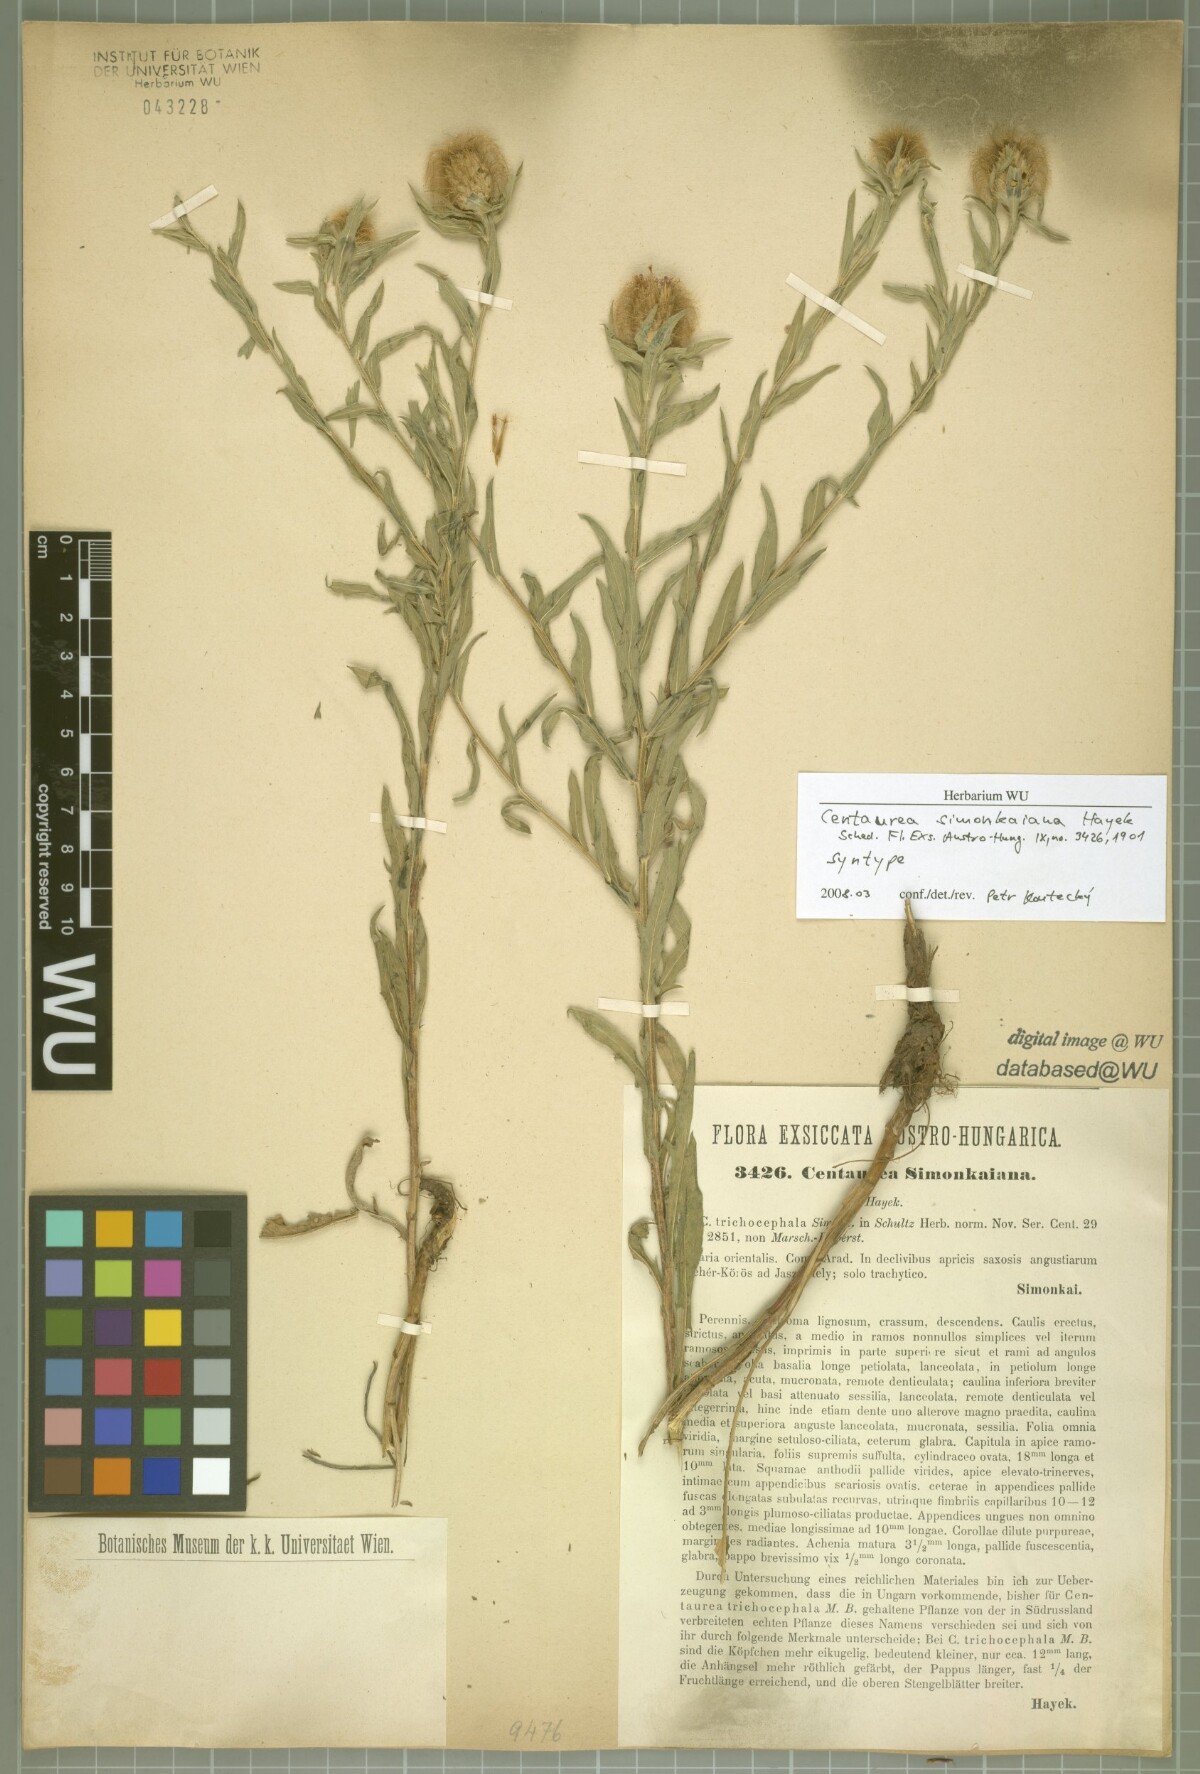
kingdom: Plantae
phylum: Tracheophyta
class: Magnoliopsida
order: Asterales
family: Asteraceae
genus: Centaurea
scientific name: Centaurea simonkaiana
